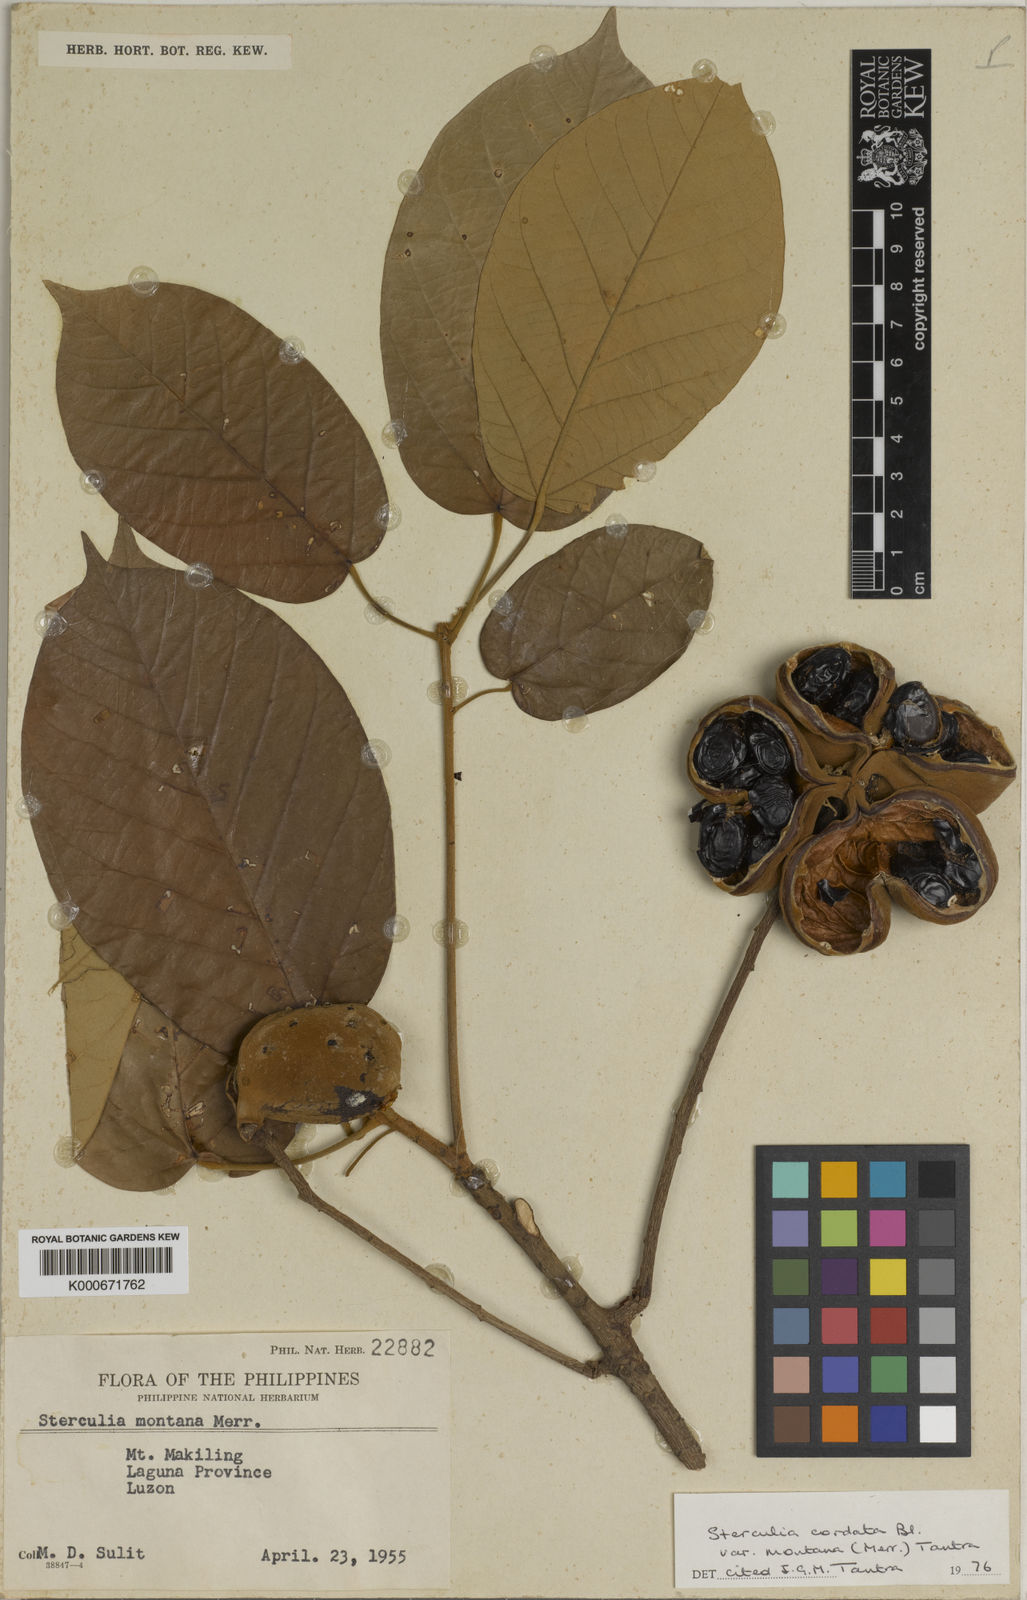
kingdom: Plantae
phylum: Tracheophyta
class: Magnoliopsida
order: Malvales
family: Malvaceae
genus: Sterculia
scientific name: Sterculia cordata
